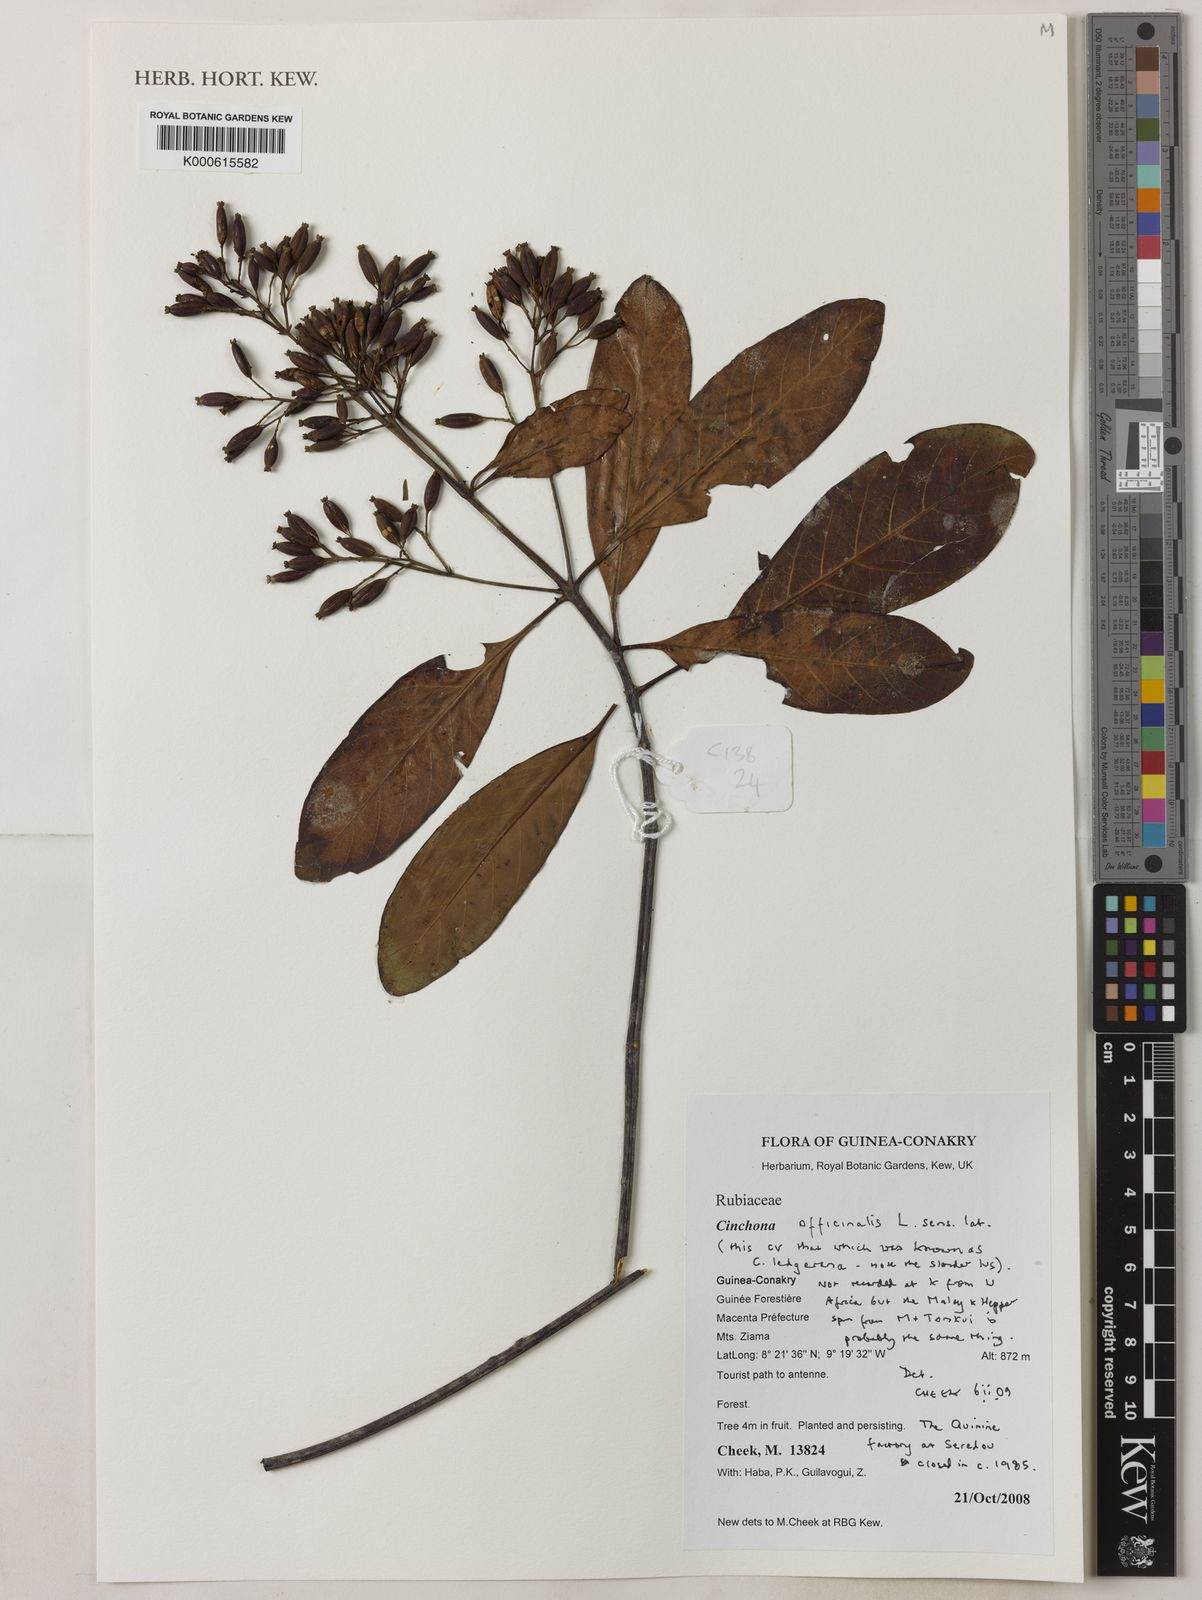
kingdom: Plantae
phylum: Tracheophyta
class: Magnoliopsida
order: Gentianales
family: Rubiaceae
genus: Cinchona
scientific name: Cinchona officinalis
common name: Lojabark
